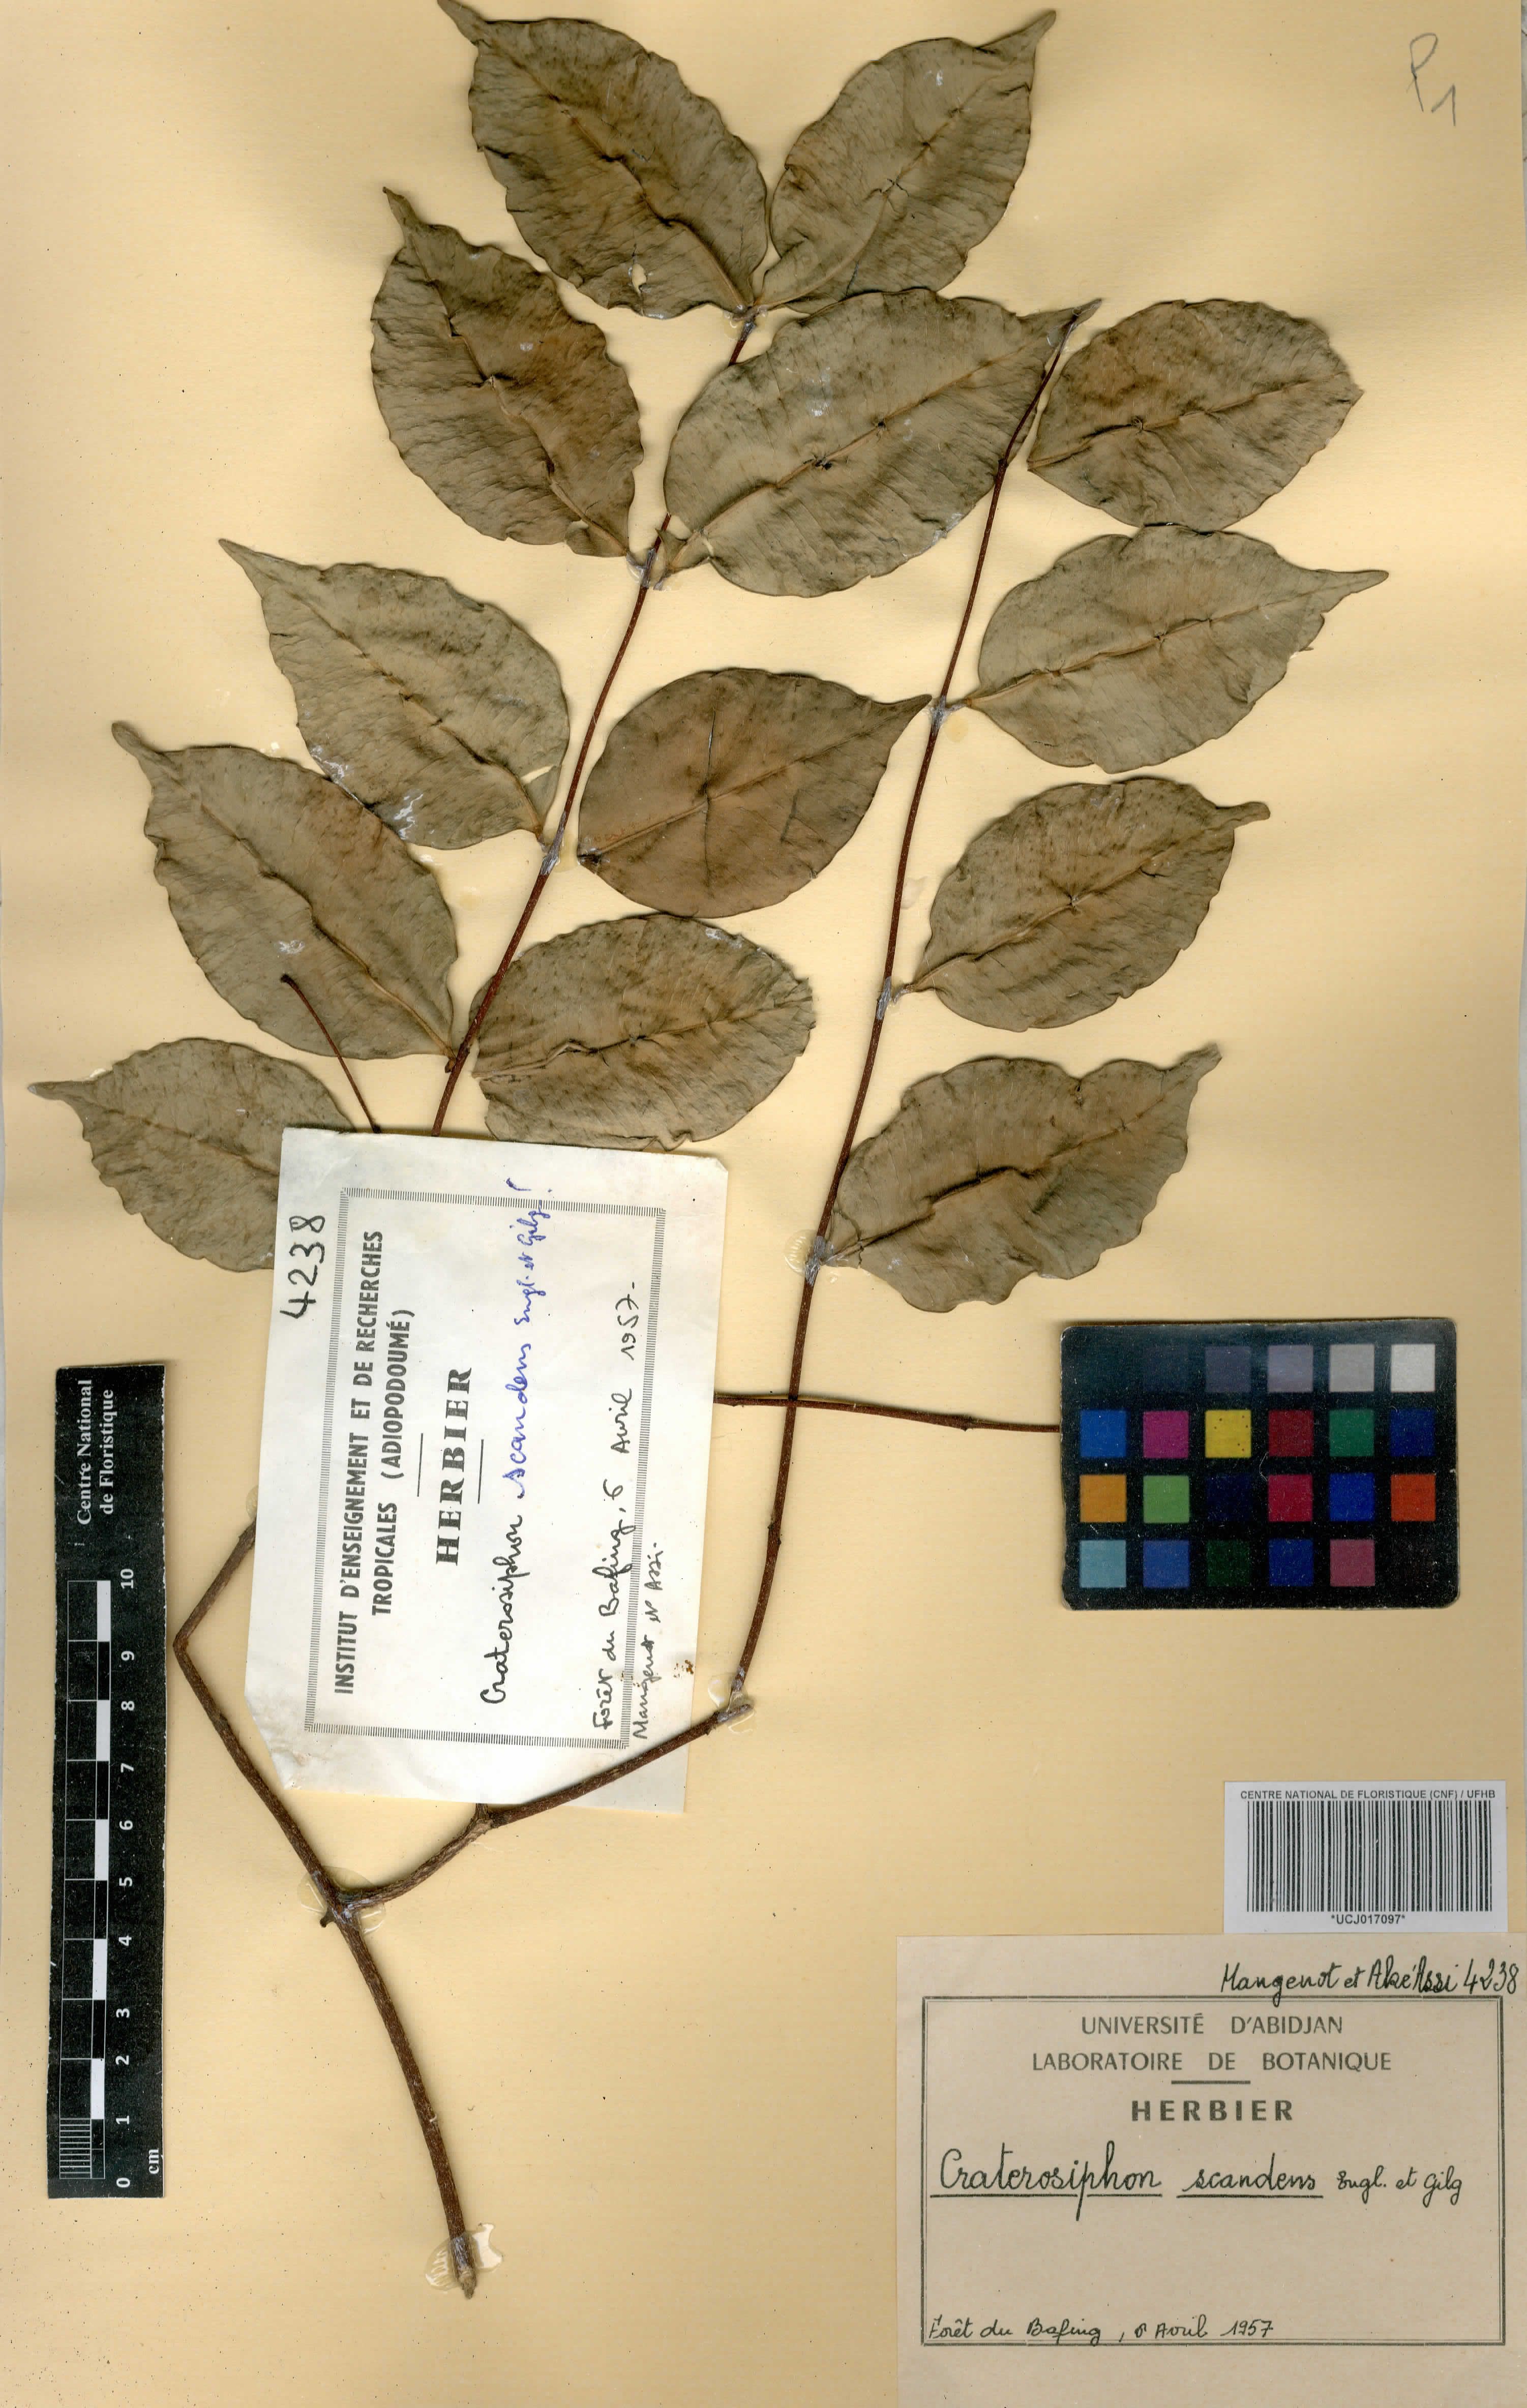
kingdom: Plantae
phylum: Tracheophyta
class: Magnoliopsida
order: Malvales
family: Thymelaeaceae
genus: Craterosiphon
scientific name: Craterosiphon scandens
